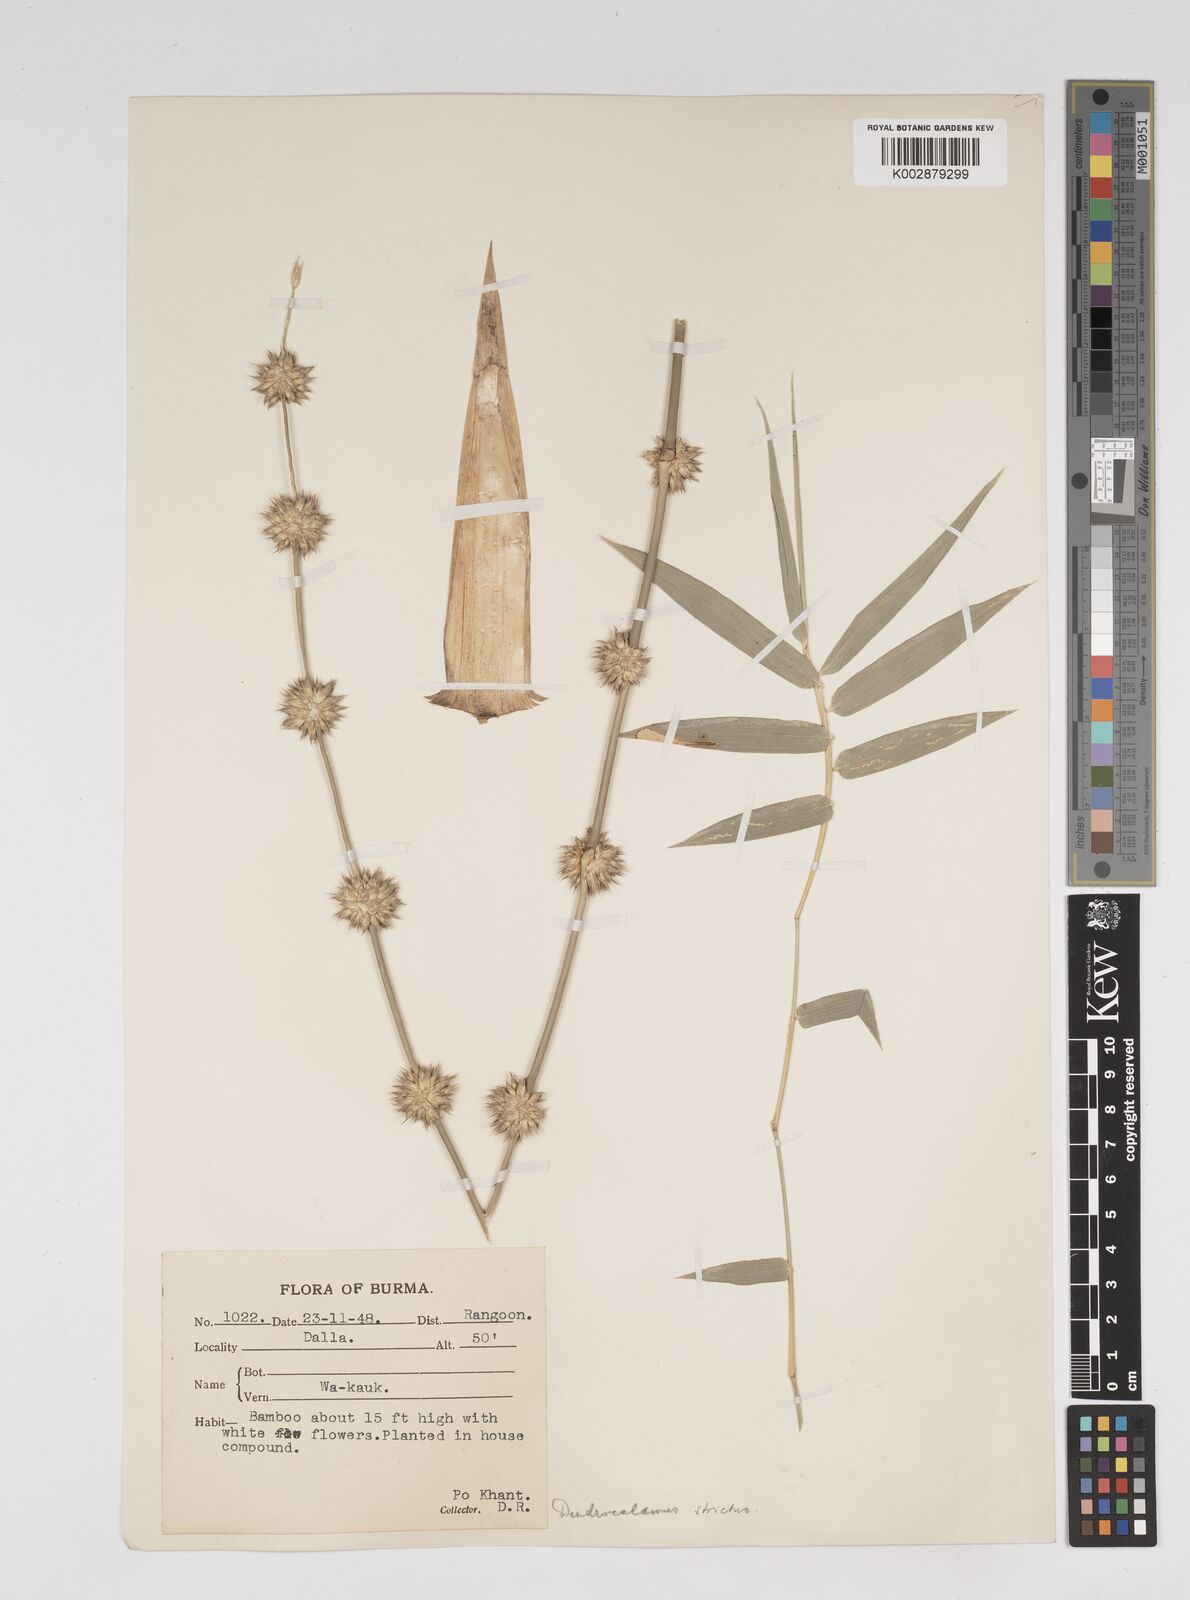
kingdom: Plantae
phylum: Tracheophyta
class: Liliopsida
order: Poales
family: Poaceae
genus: Dendrocalamus
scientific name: Dendrocalamus
